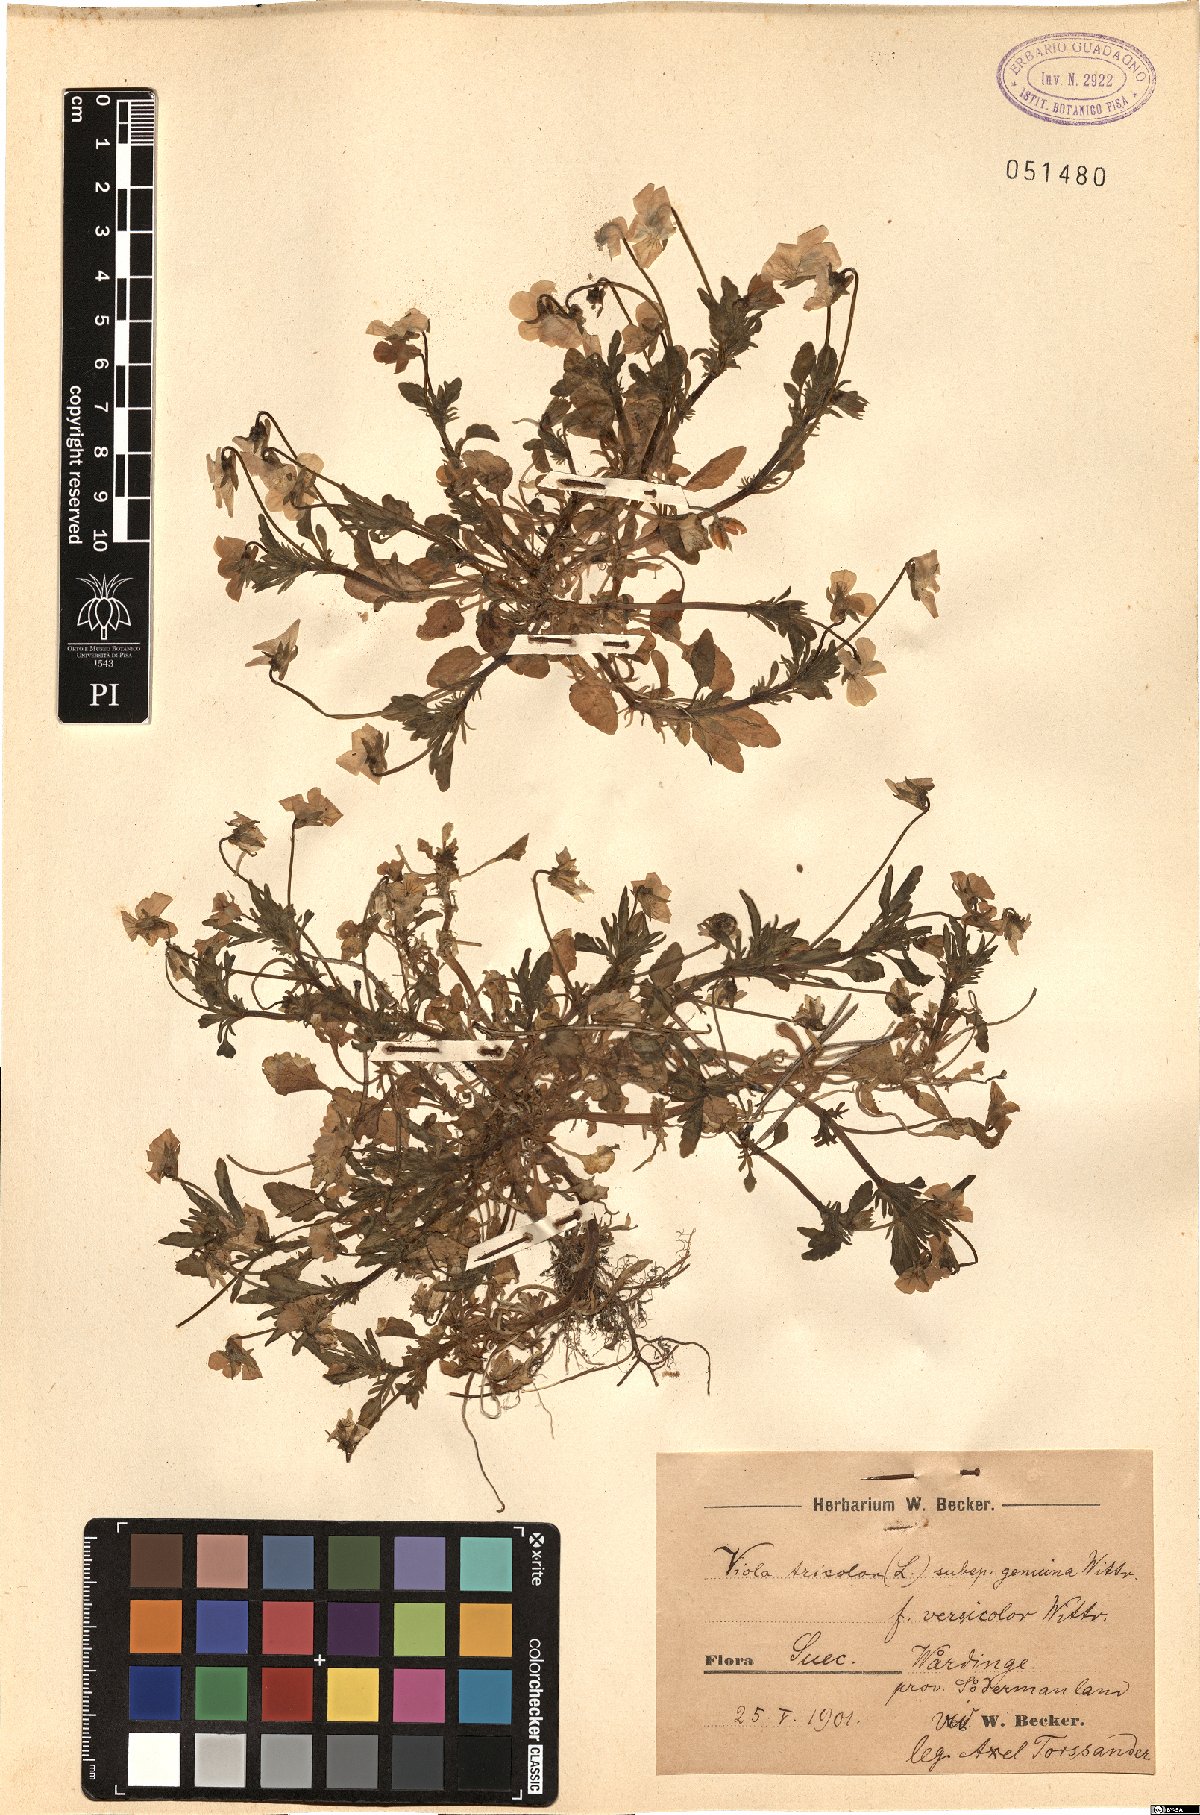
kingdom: Plantae
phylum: Tracheophyta
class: Magnoliopsida
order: Malpighiales
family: Violaceae
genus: Viola
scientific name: Viola tricolor
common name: Pansy
